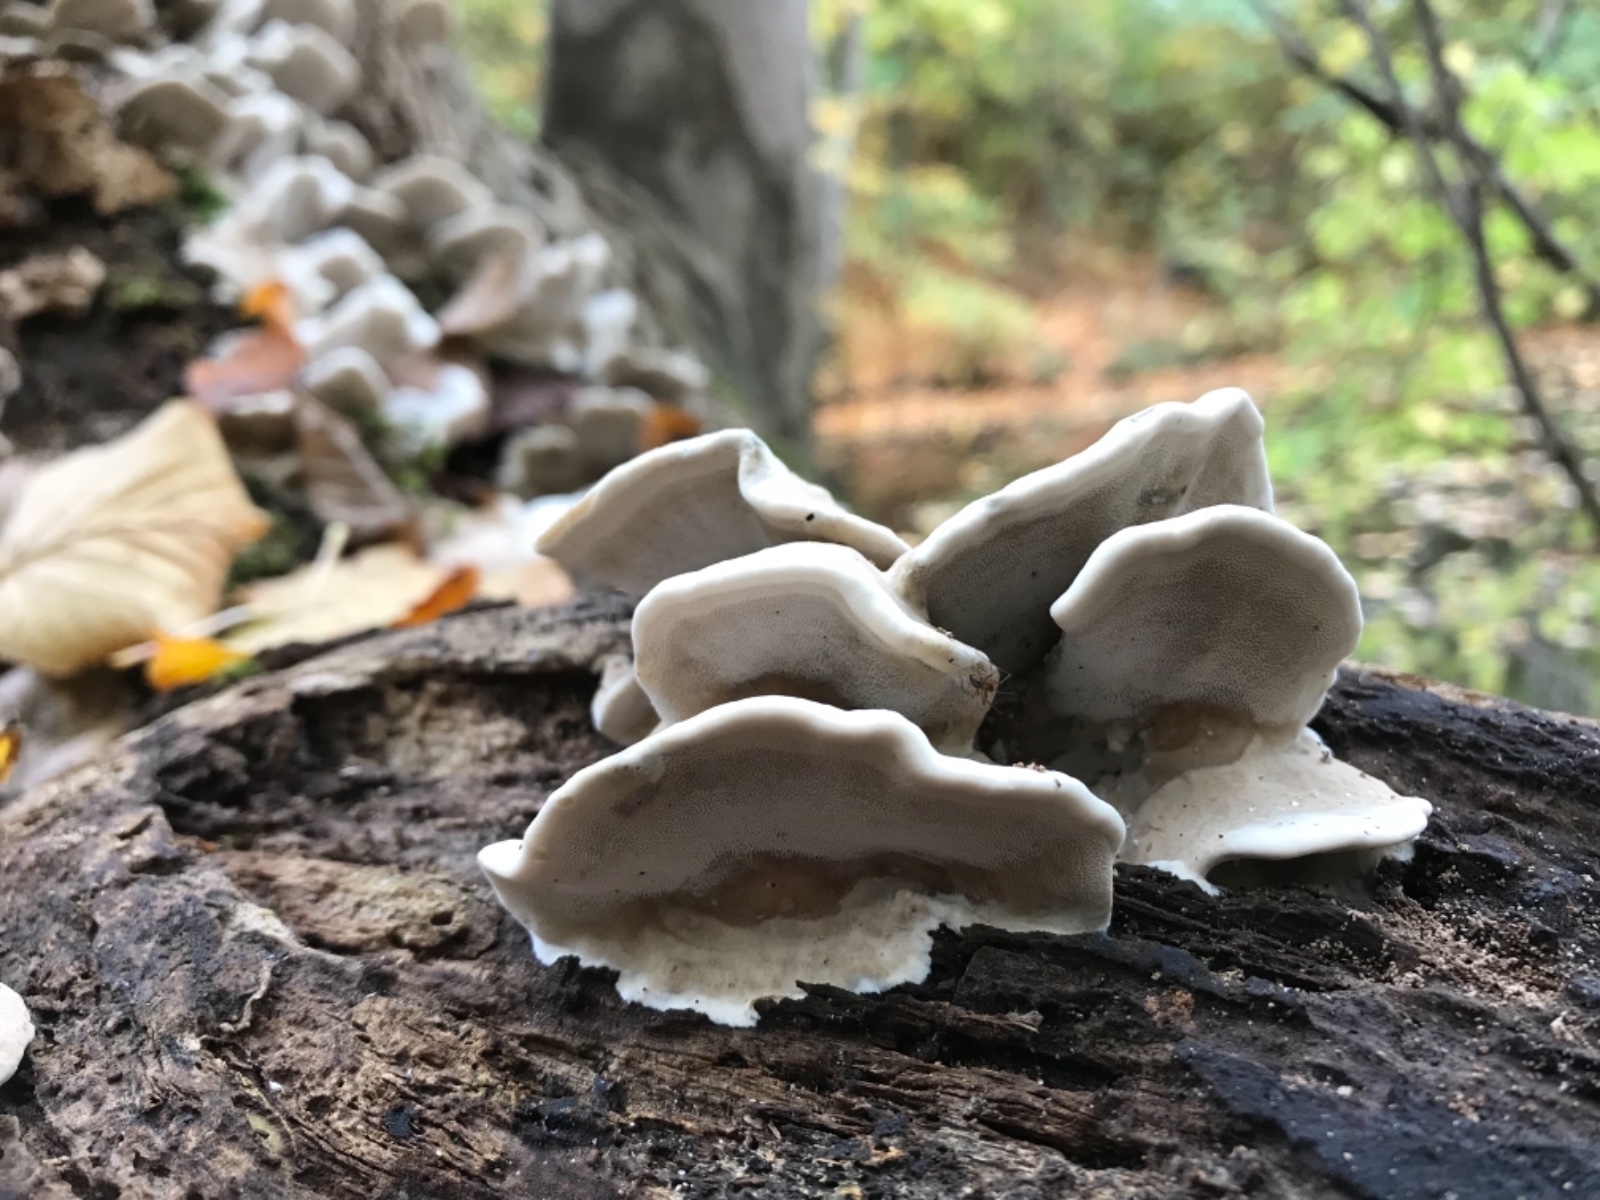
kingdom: Fungi
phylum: Basidiomycota
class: Agaricomycetes
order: Polyporales
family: Phanerochaetaceae
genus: Bjerkandera
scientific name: Bjerkandera fumosa
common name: grågul sodporesvamp
